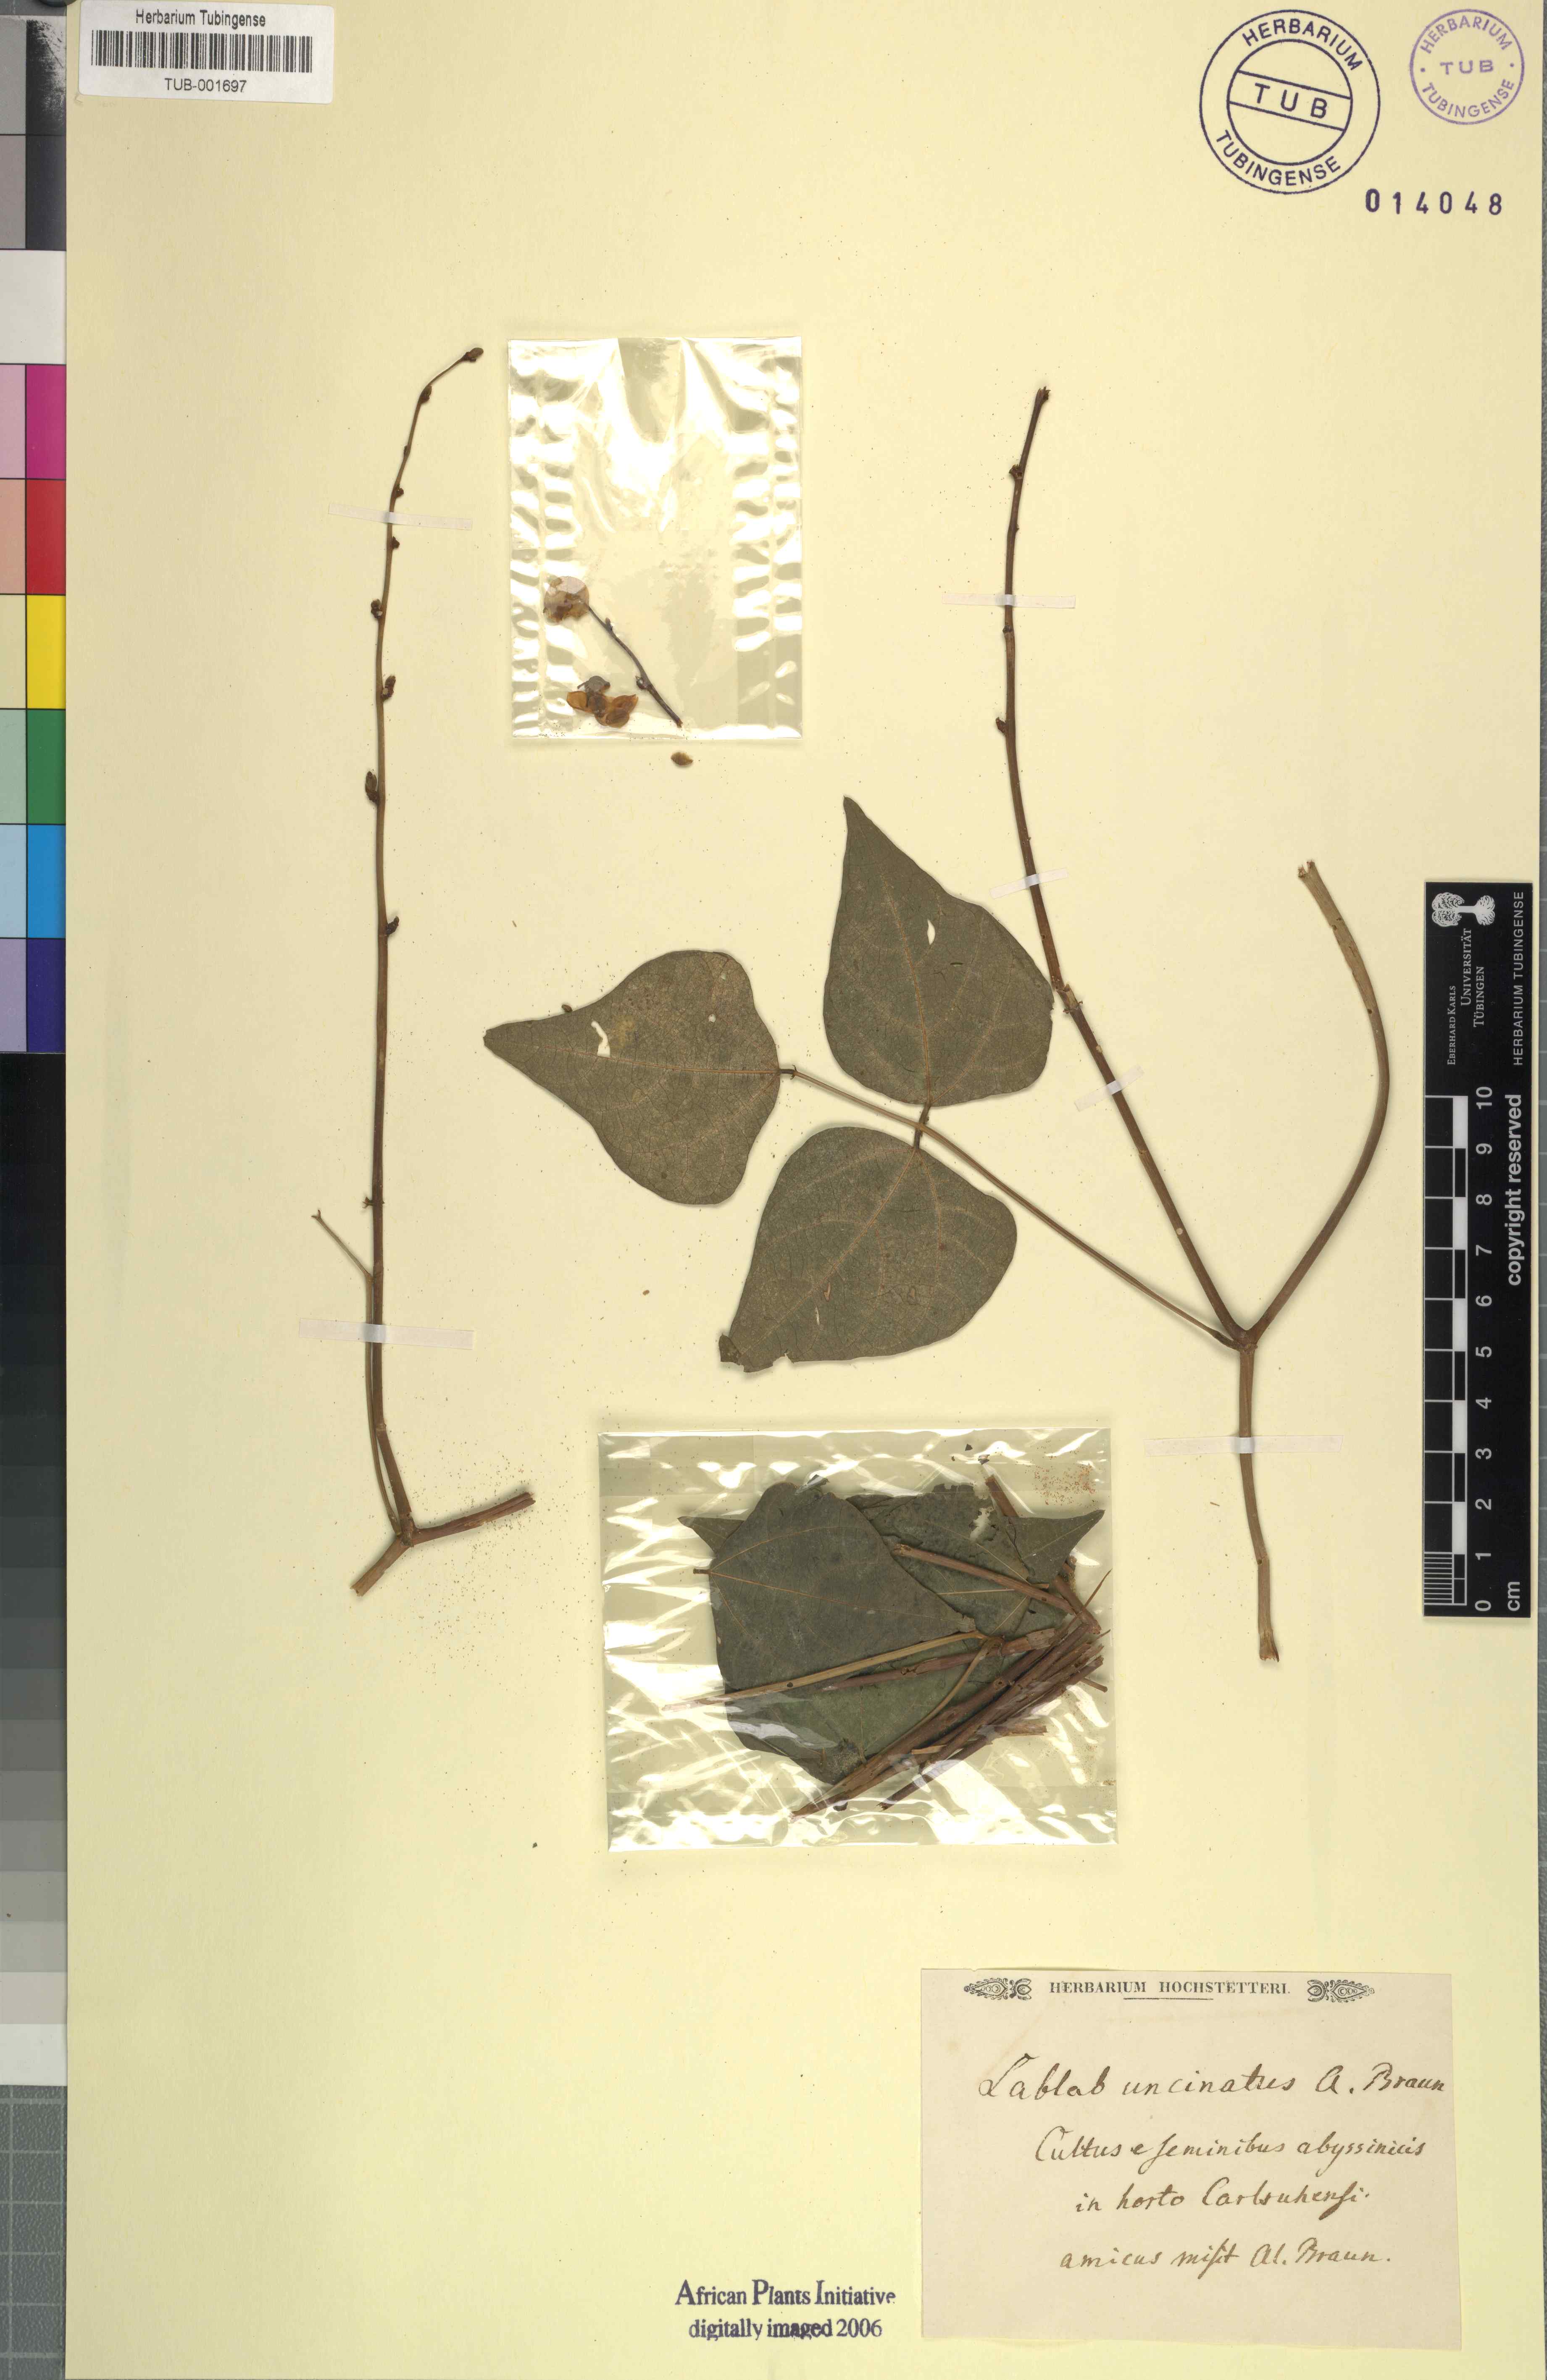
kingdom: Plantae
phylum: Tracheophyta
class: Magnoliopsida
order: Fabales
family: Fabaceae
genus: Lablab
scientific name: Lablab purpureus
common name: Lablab-bean
